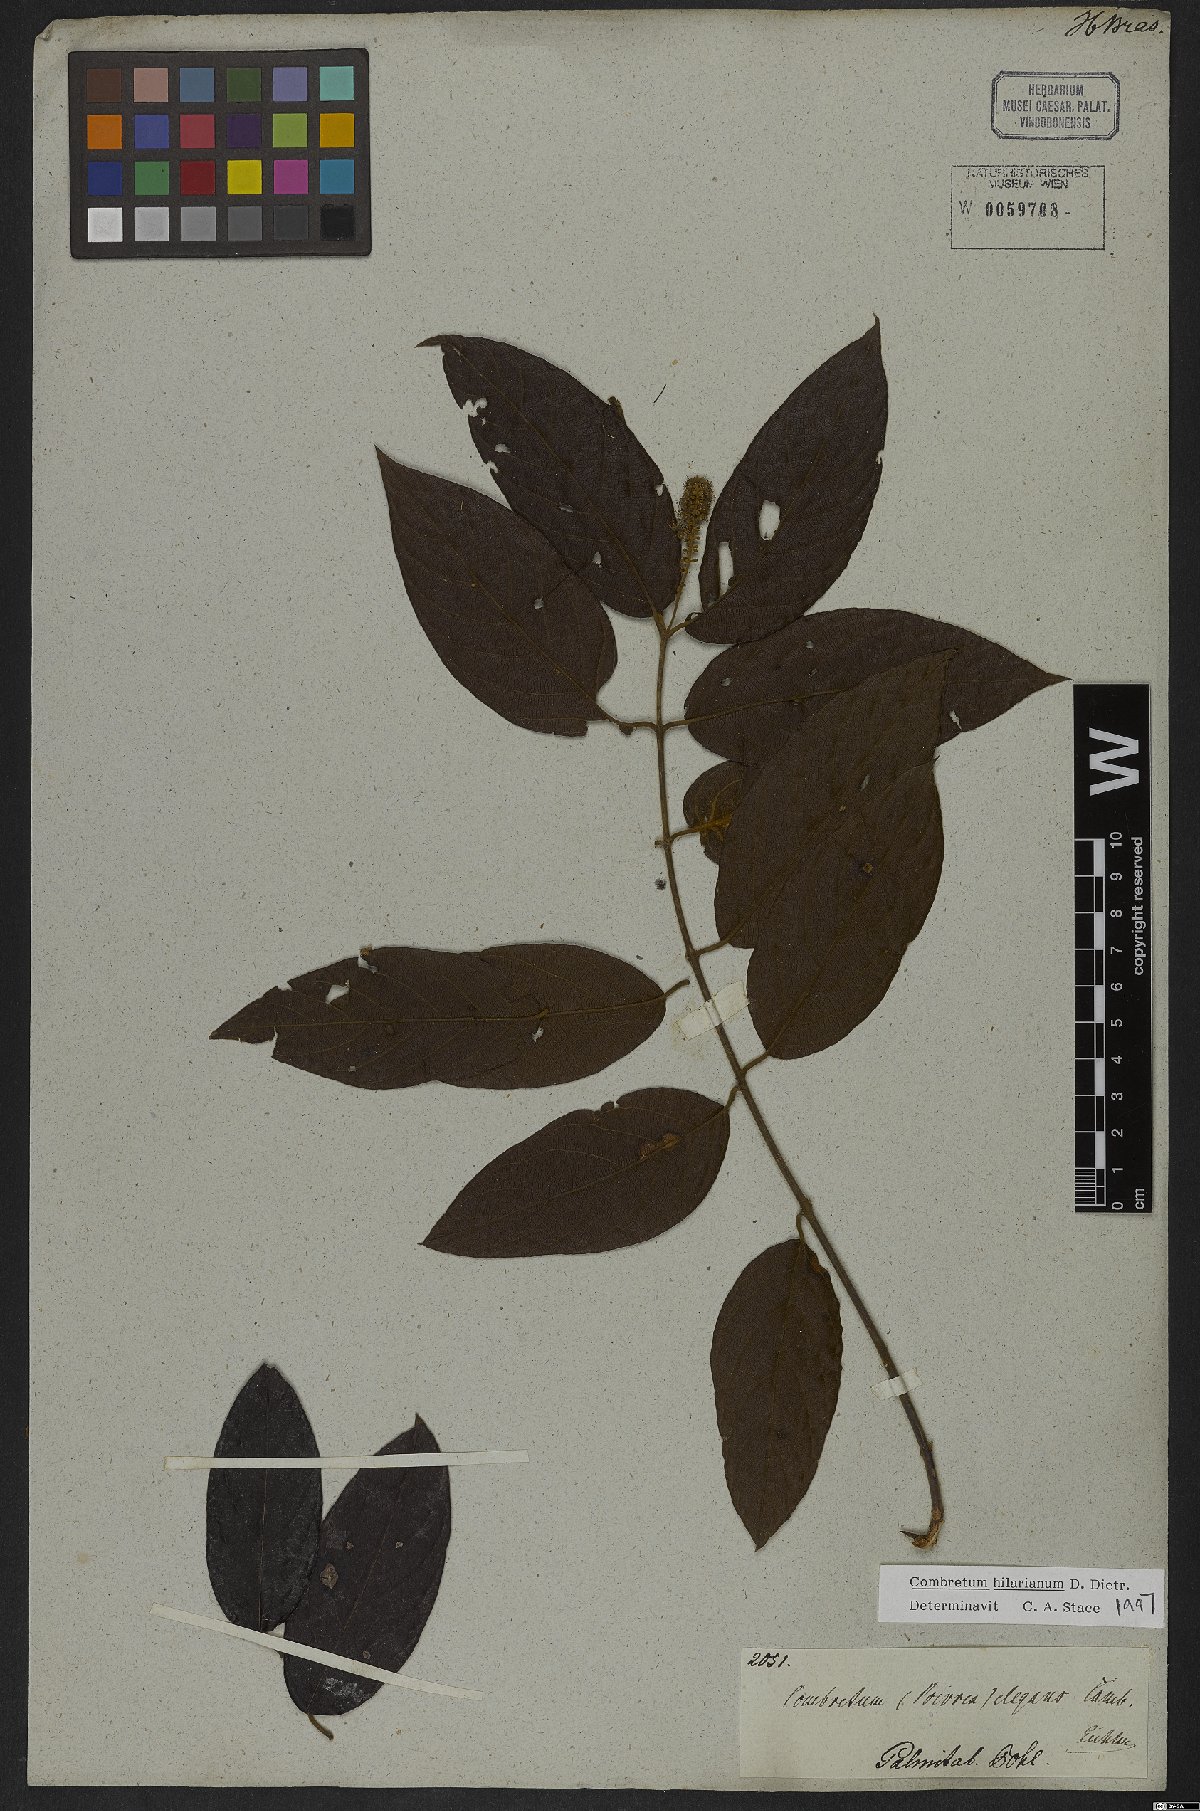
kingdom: Plantae
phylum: Tracheophyta
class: Magnoliopsida
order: Myrtales
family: Combretaceae
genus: Combretum
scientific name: Combretum hilarianum
